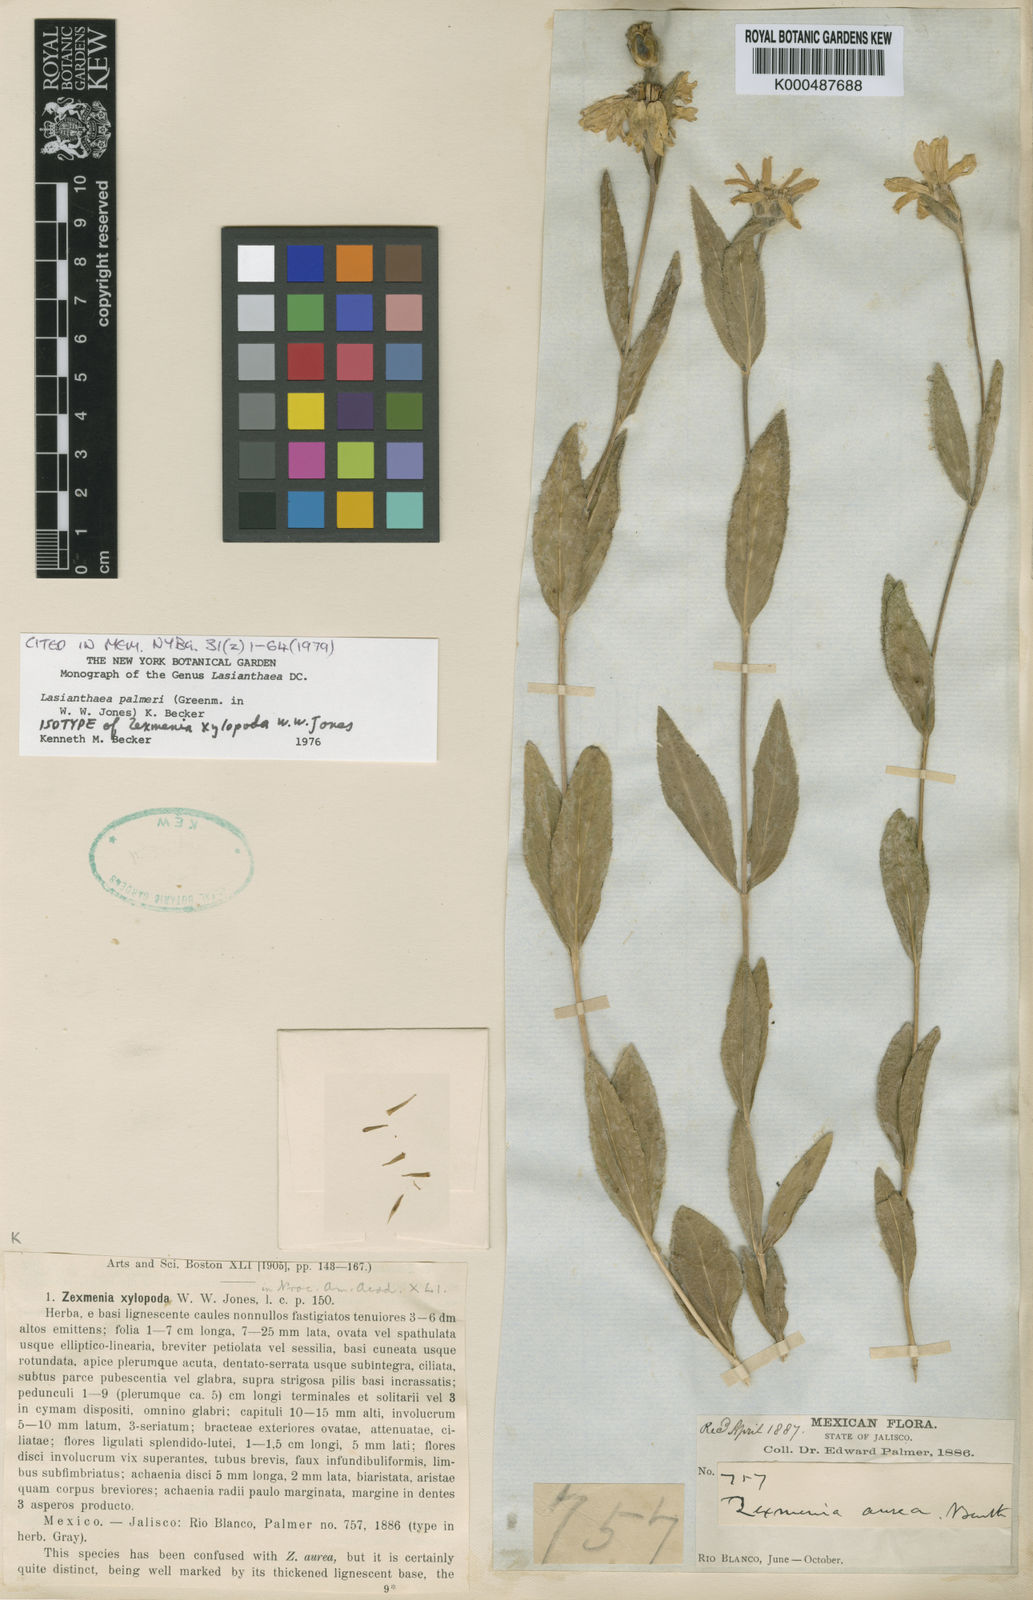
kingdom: Plantae
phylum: Tracheophyta
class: Magnoliopsida
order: Asterales
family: Asteraceae
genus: Lasianthaea
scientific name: Lasianthaea palmeri
